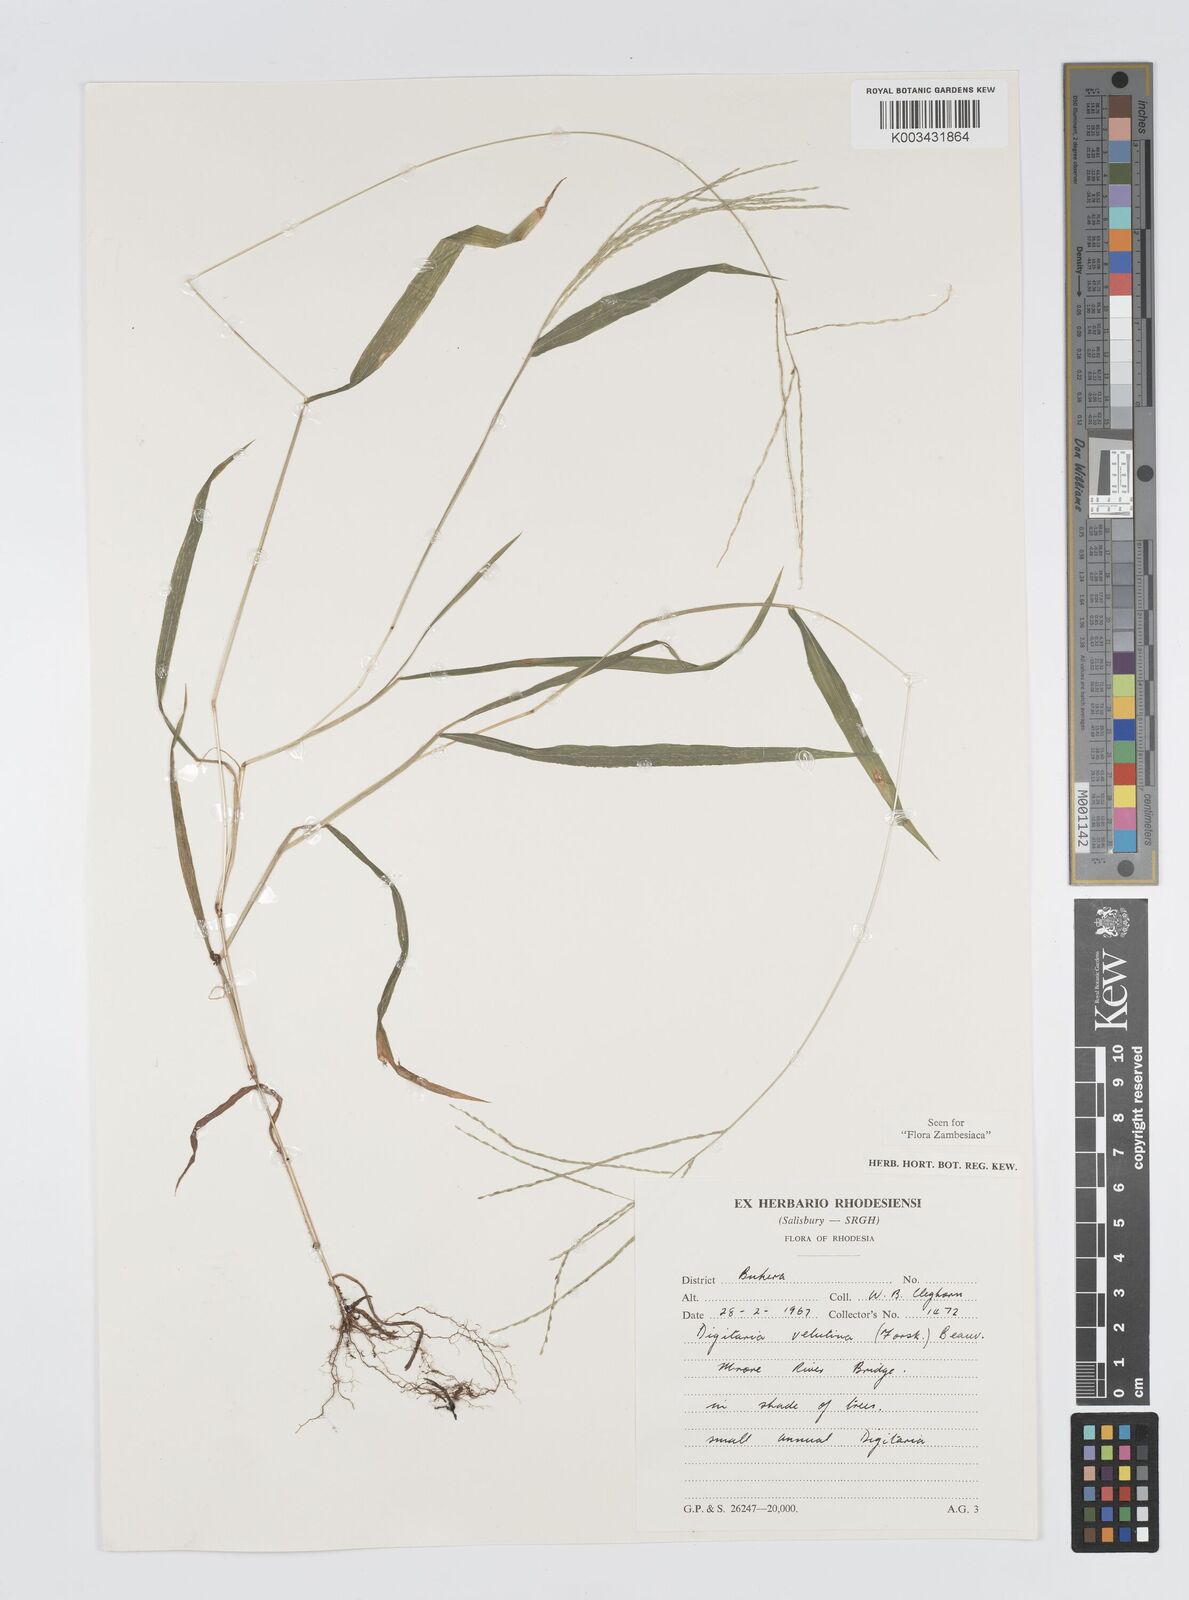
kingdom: Plantae
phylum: Tracheophyta
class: Liliopsida
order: Poales
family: Poaceae
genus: Digitaria
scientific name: Digitaria velutina
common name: Long-plume finger grass
